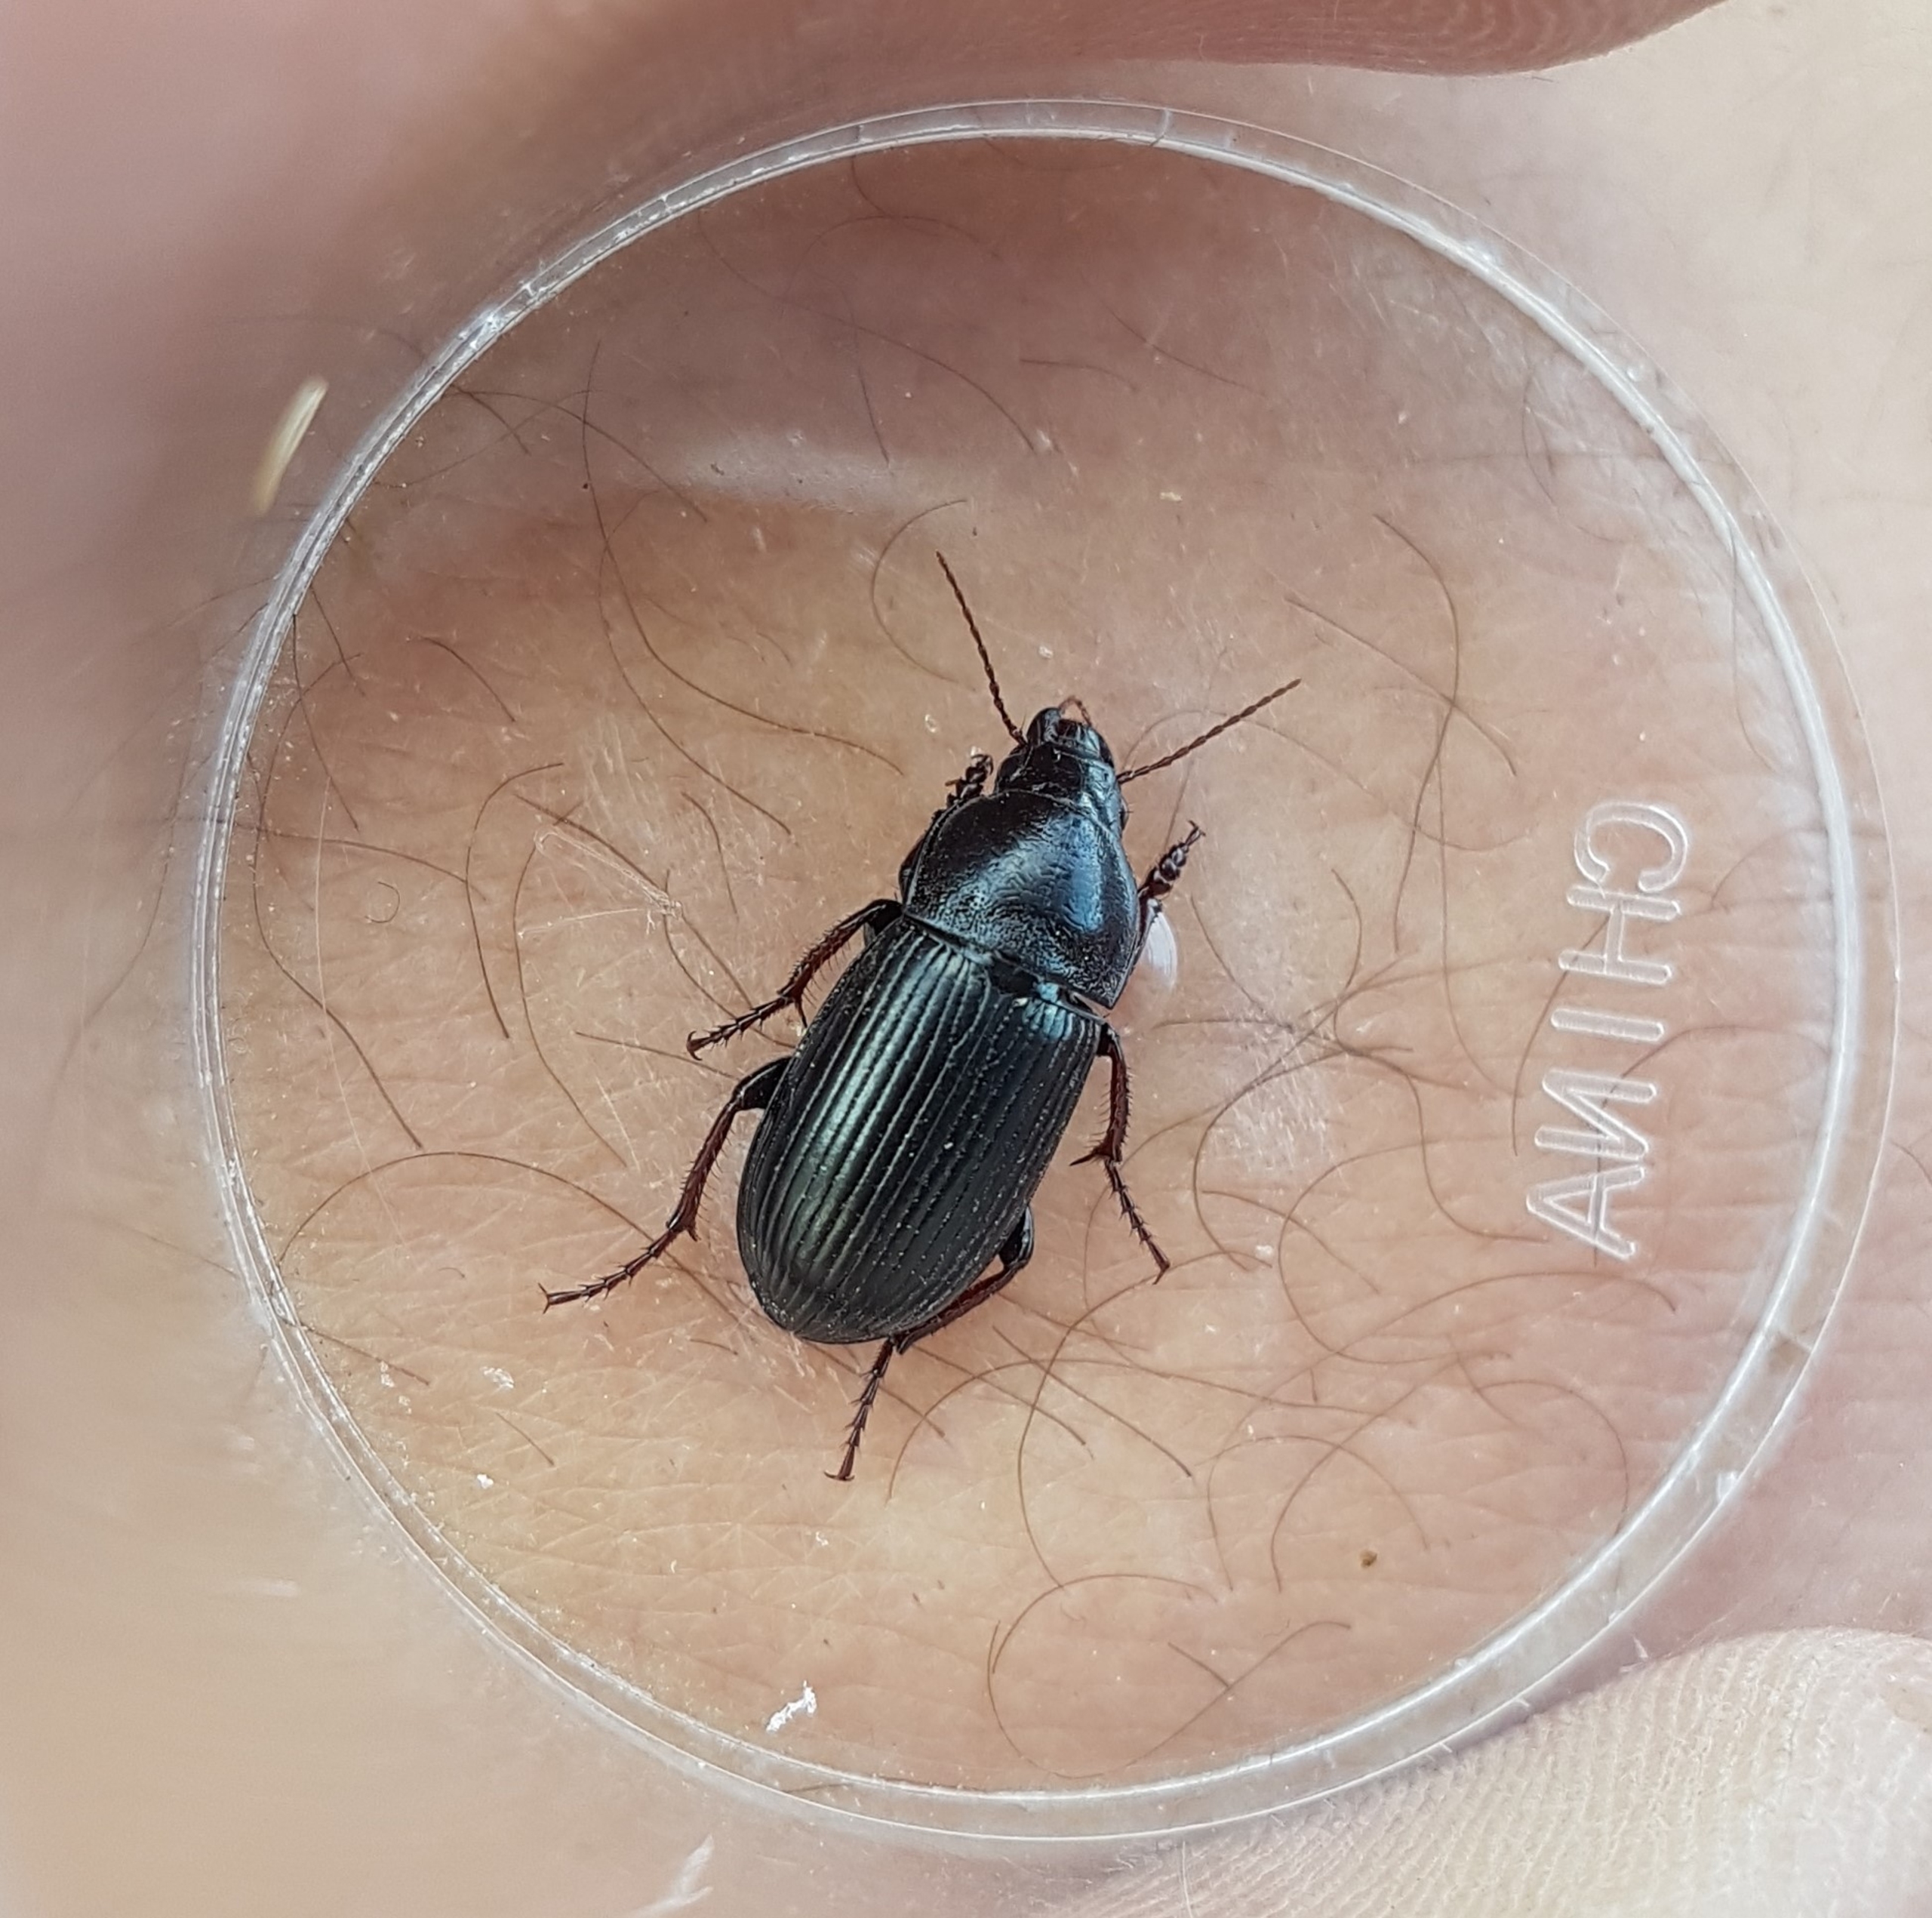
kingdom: Animalia
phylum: Arthropoda
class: Insecta
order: Coleoptera
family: Carabidae
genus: Zabrus
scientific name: Zabrus tenebrioides
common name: Aksløber
